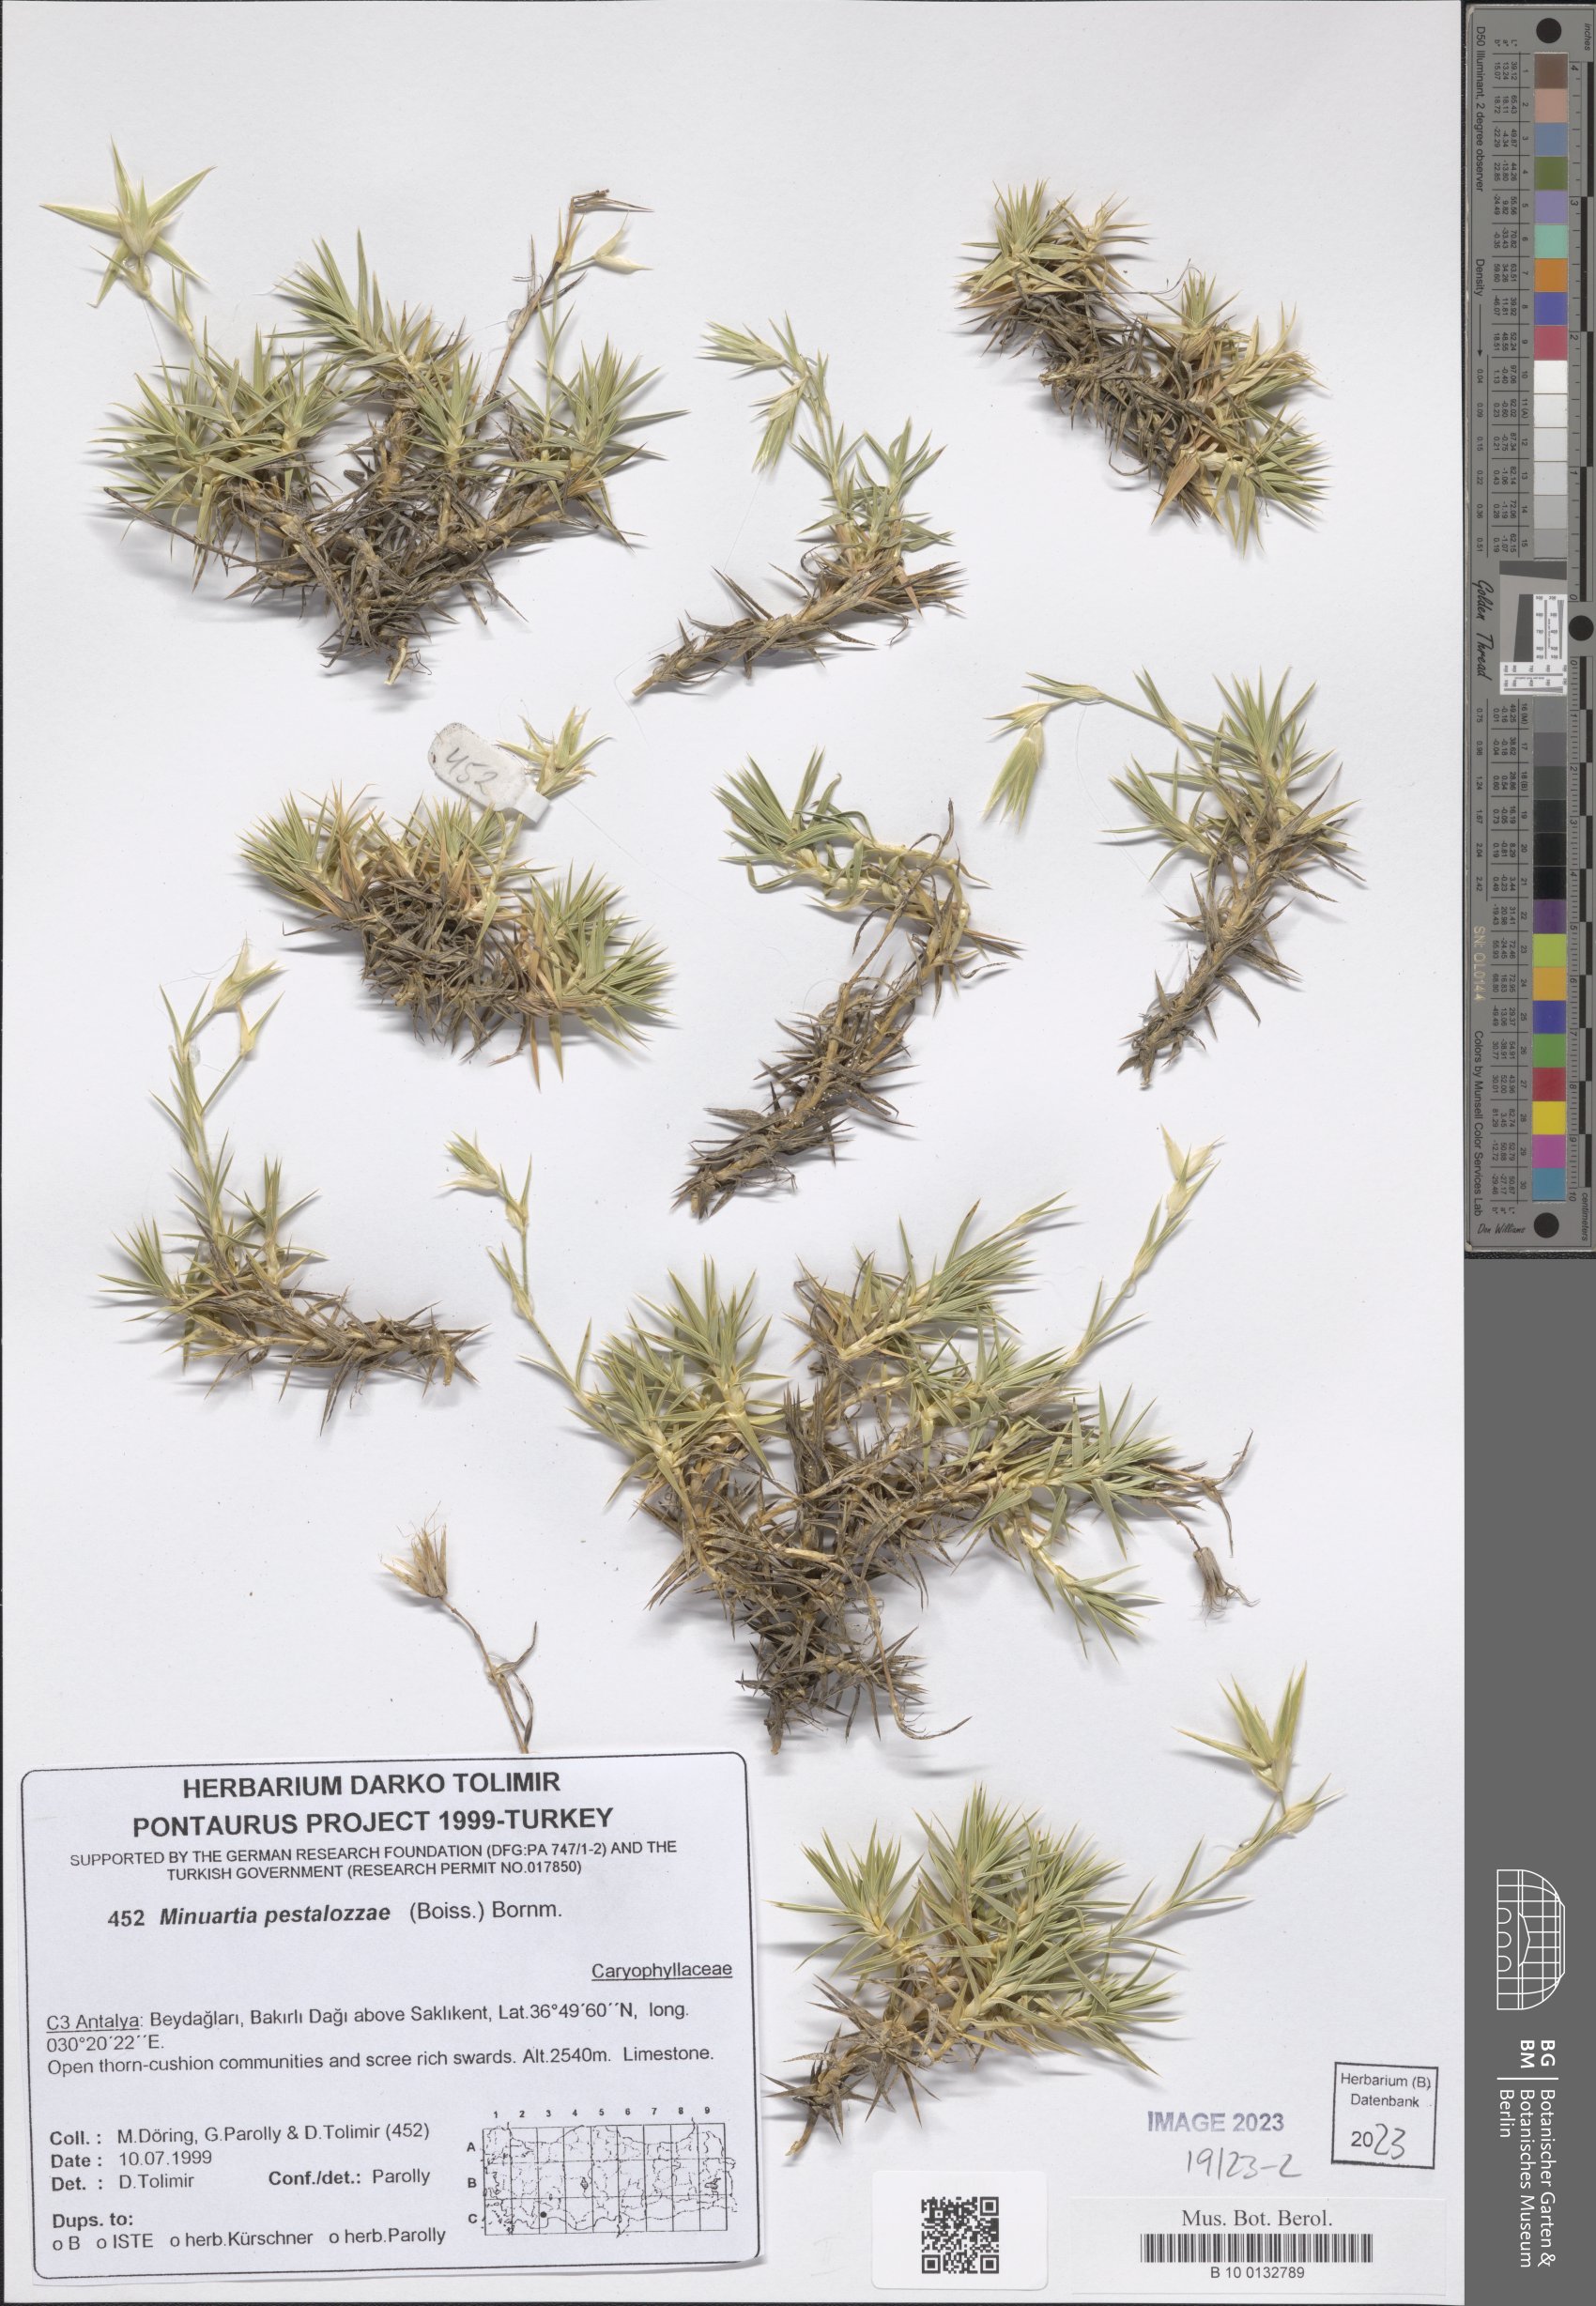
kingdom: Plantae
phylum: Tracheophyta
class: Magnoliopsida
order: Caryophyllales
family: Caryophyllaceae
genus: Minuartiella
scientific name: Minuartiella pestalozzae
